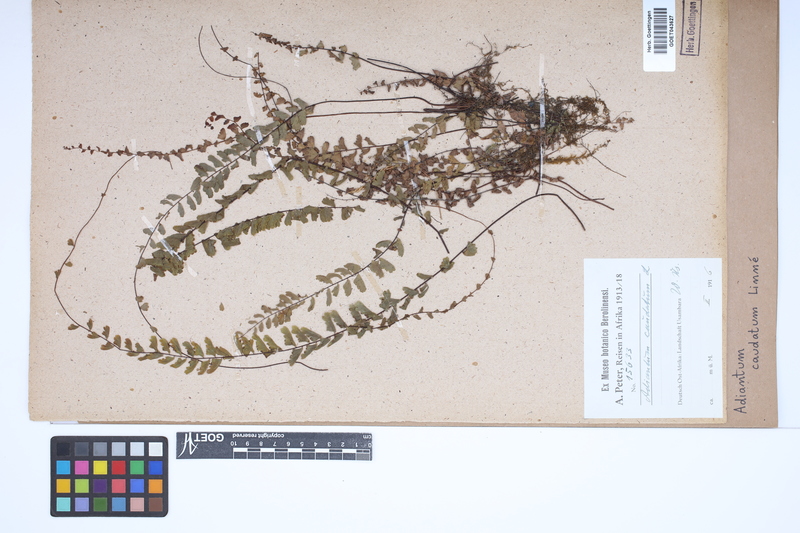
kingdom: Plantae
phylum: Tracheophyta
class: Polypodiopsida
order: Polypodiales
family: Pteridaceae
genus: Adiantum
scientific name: Adiantum caudatum
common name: Tailed maidenhair
